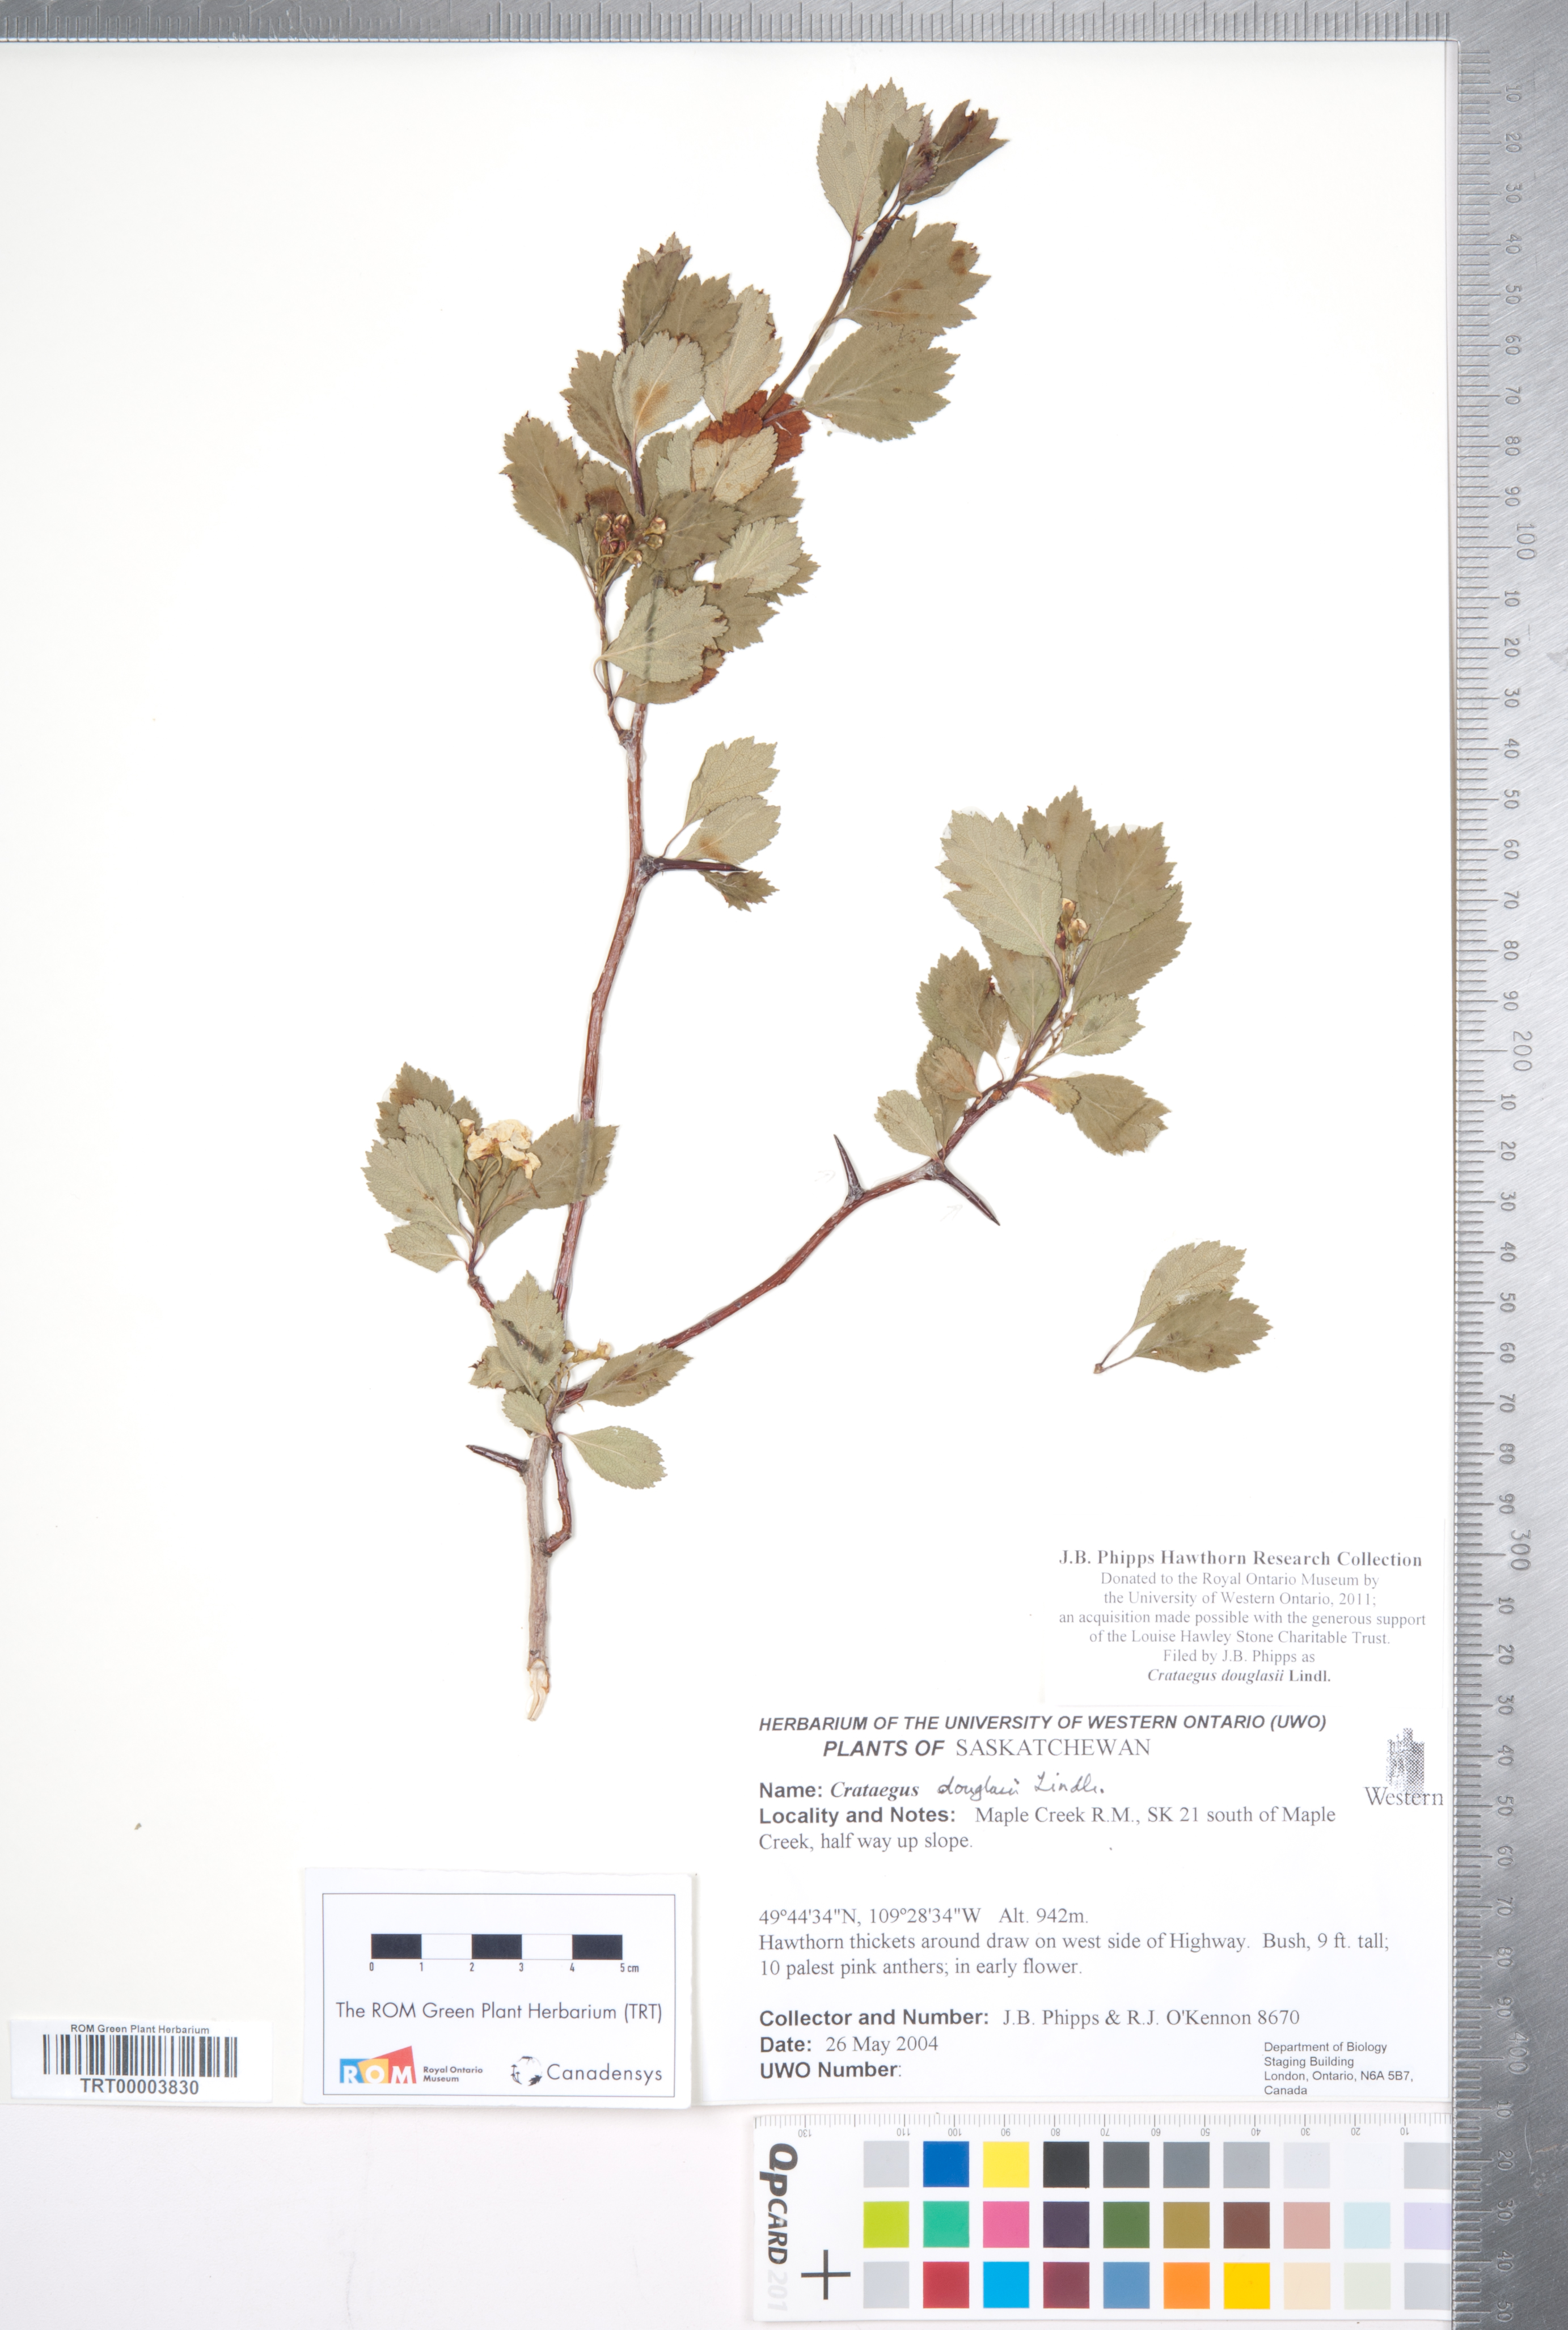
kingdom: Plantae
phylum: Tracheophyta
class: Magnoliopsida
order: Rosales
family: Rosaceae
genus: Crataegus
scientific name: Crataegus douglasii
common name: Black hawthorn
